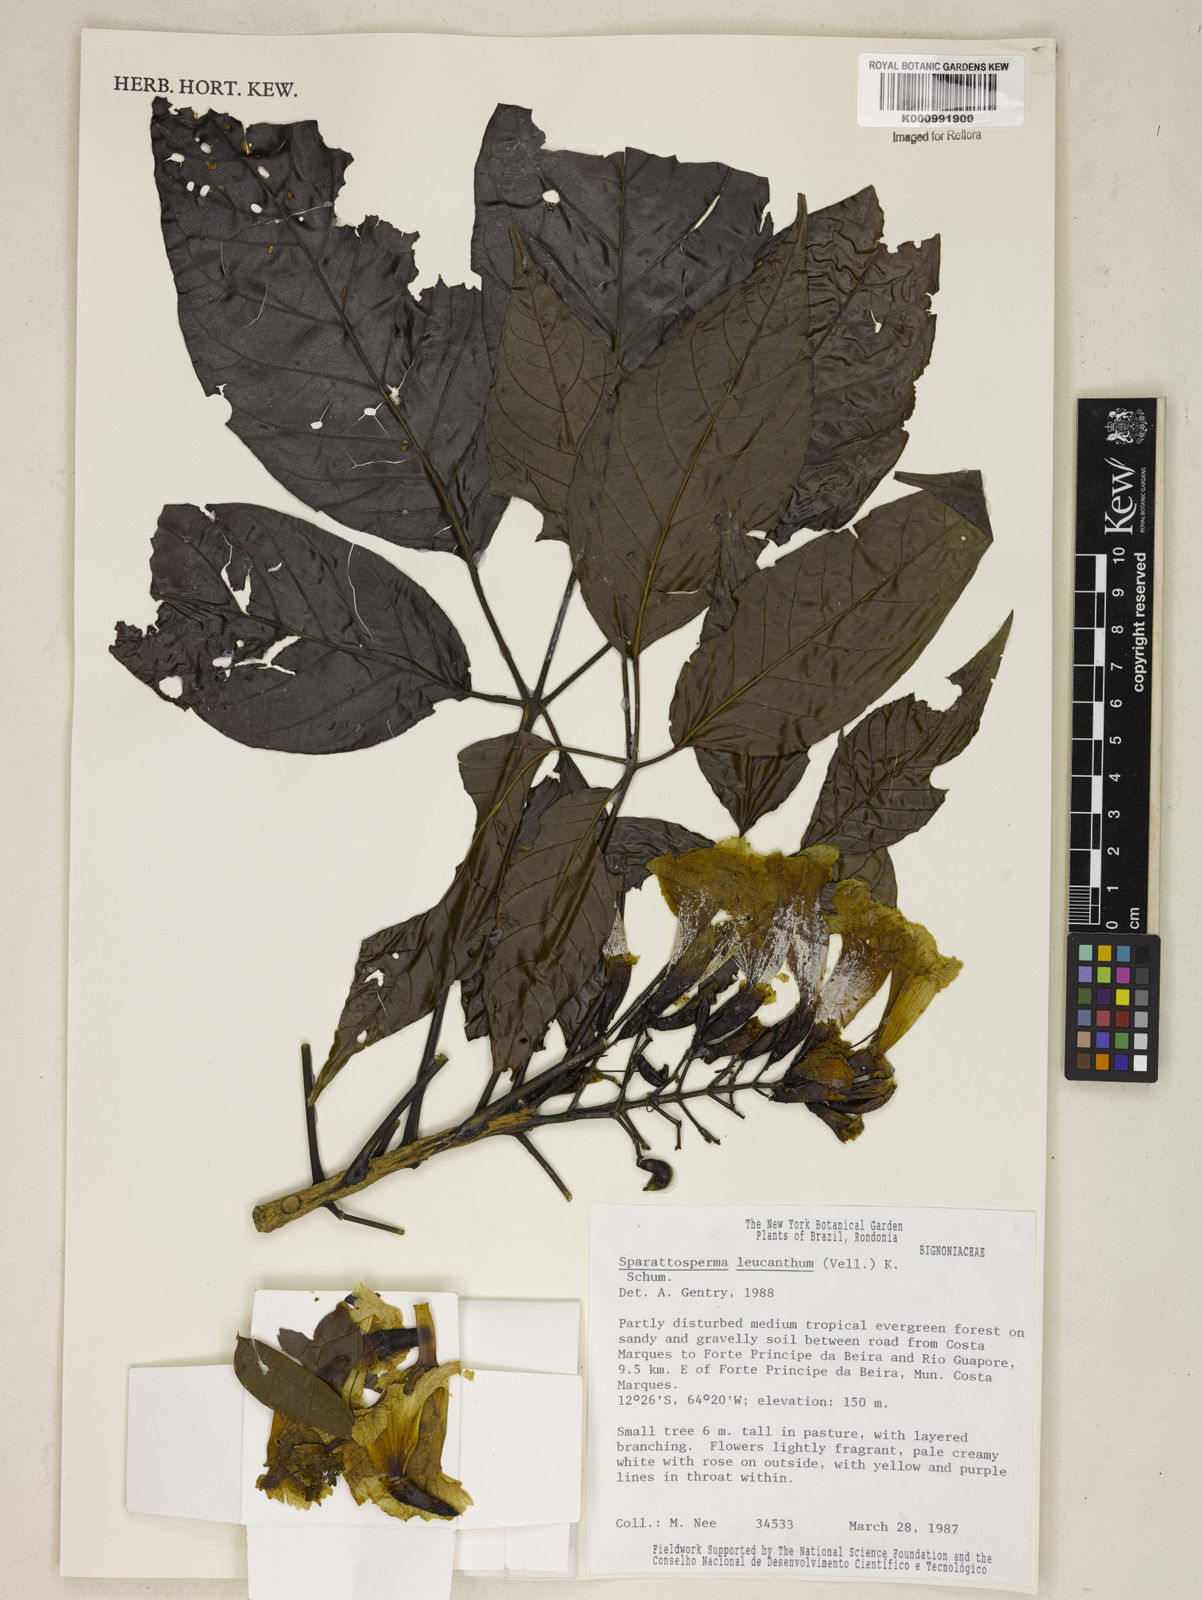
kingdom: Plantae
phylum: Tracheophyta
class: Magnoliopsida
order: Lamiales
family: Bignoniaceae
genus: Sparattosperma
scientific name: Sparattosperma leucanthum
